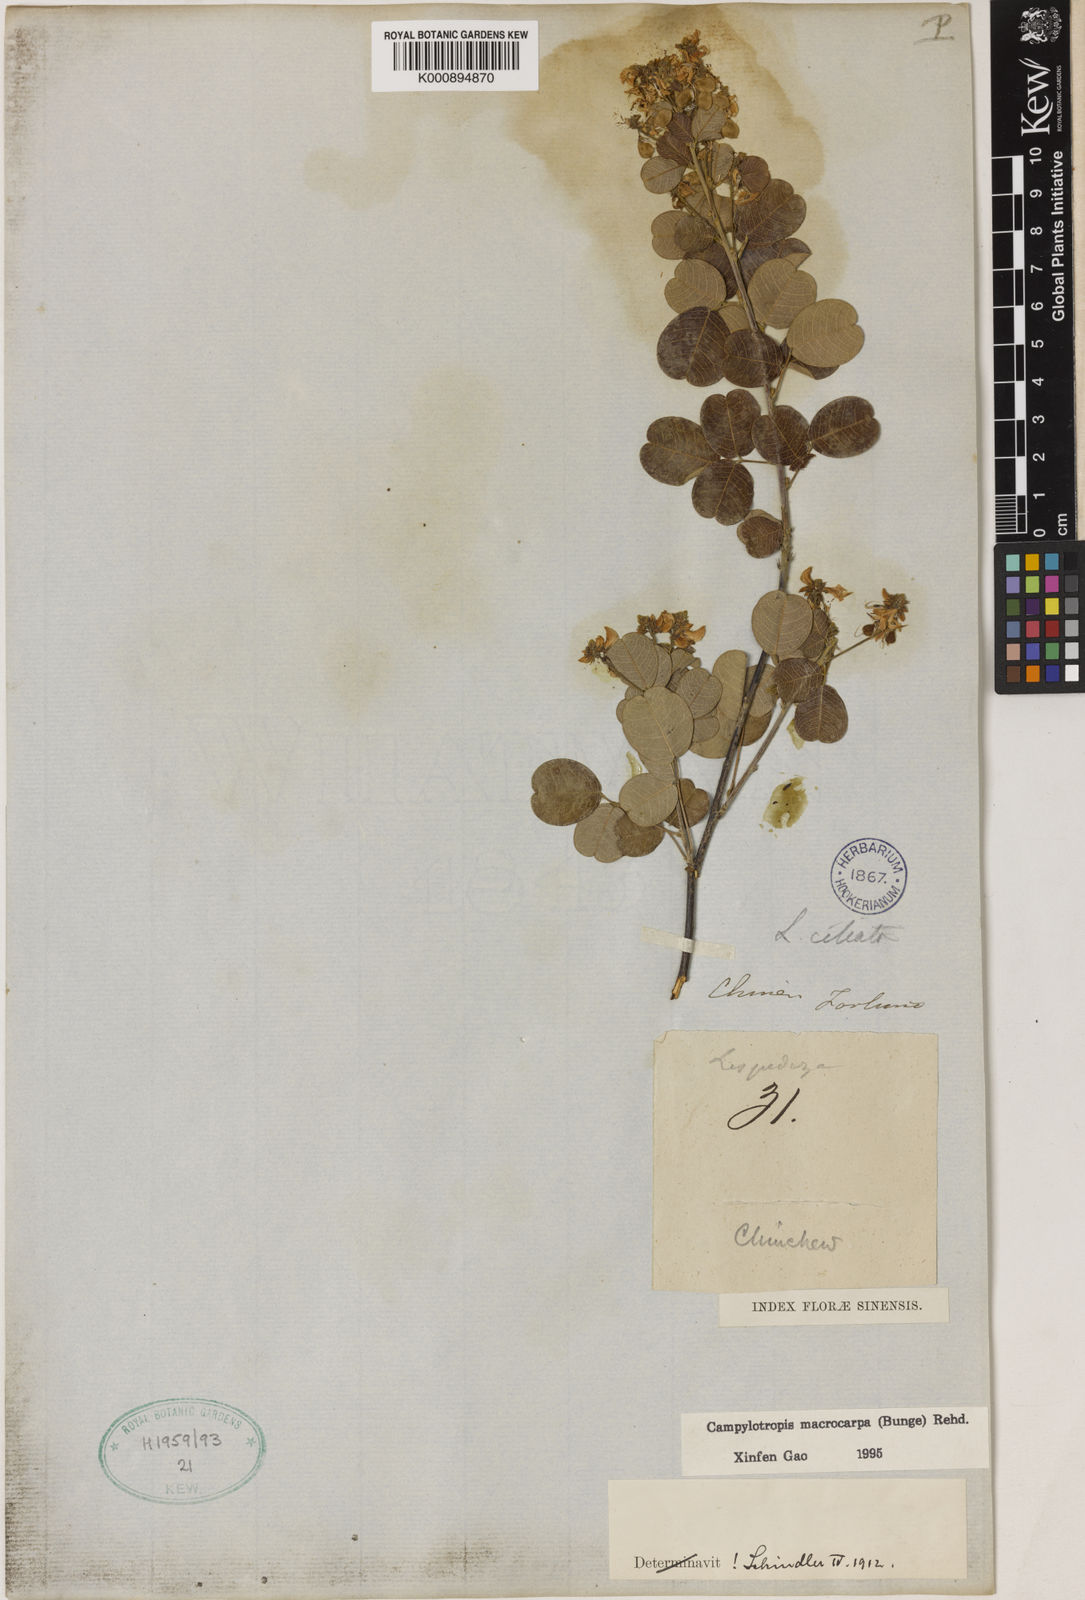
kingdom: Plantae
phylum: Tracheophyta
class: Magnoliopsida
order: Fabales
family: Fabaceae
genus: Campylotropis
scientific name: Campylotropis macrocarpa
